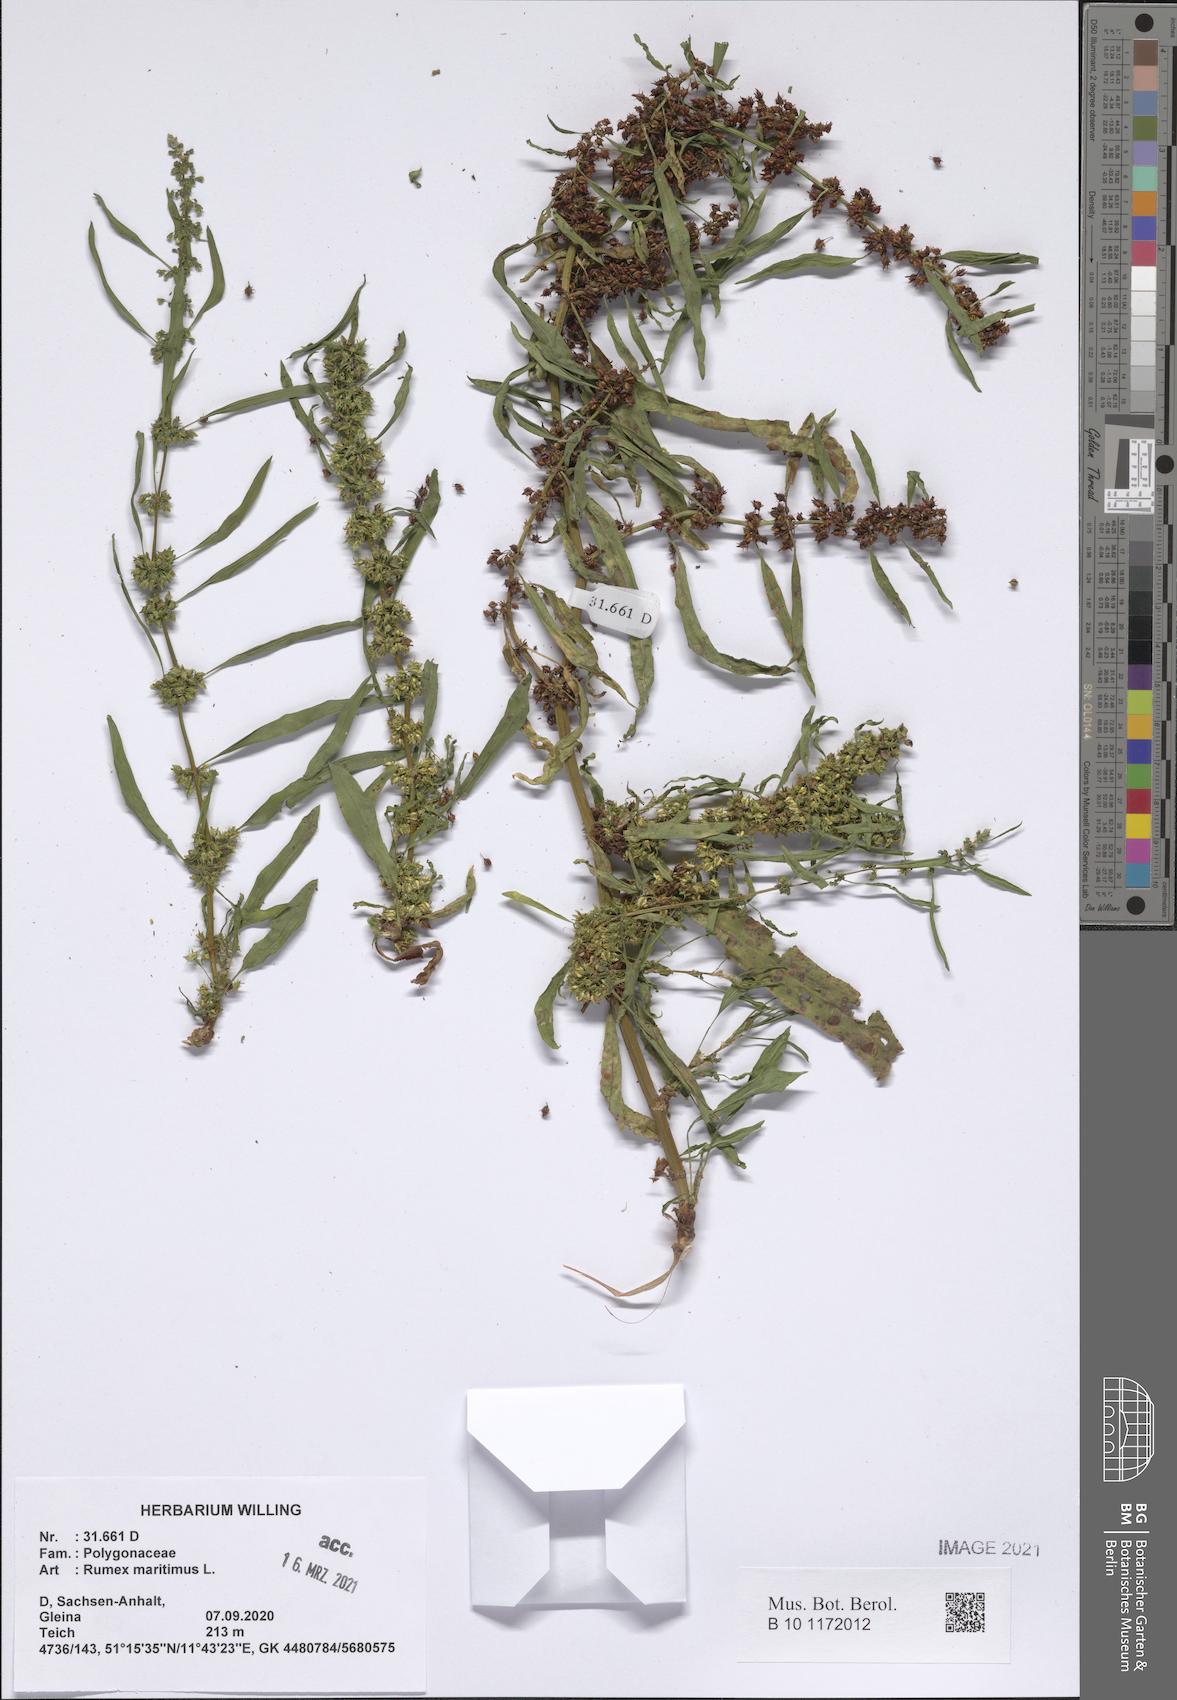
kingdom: Plantae
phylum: Tracheophyta
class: Magnoliopsida
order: Caryophyllales
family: Polygonaceae
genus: Rumex
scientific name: Rumex maritimus
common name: Golden dock
